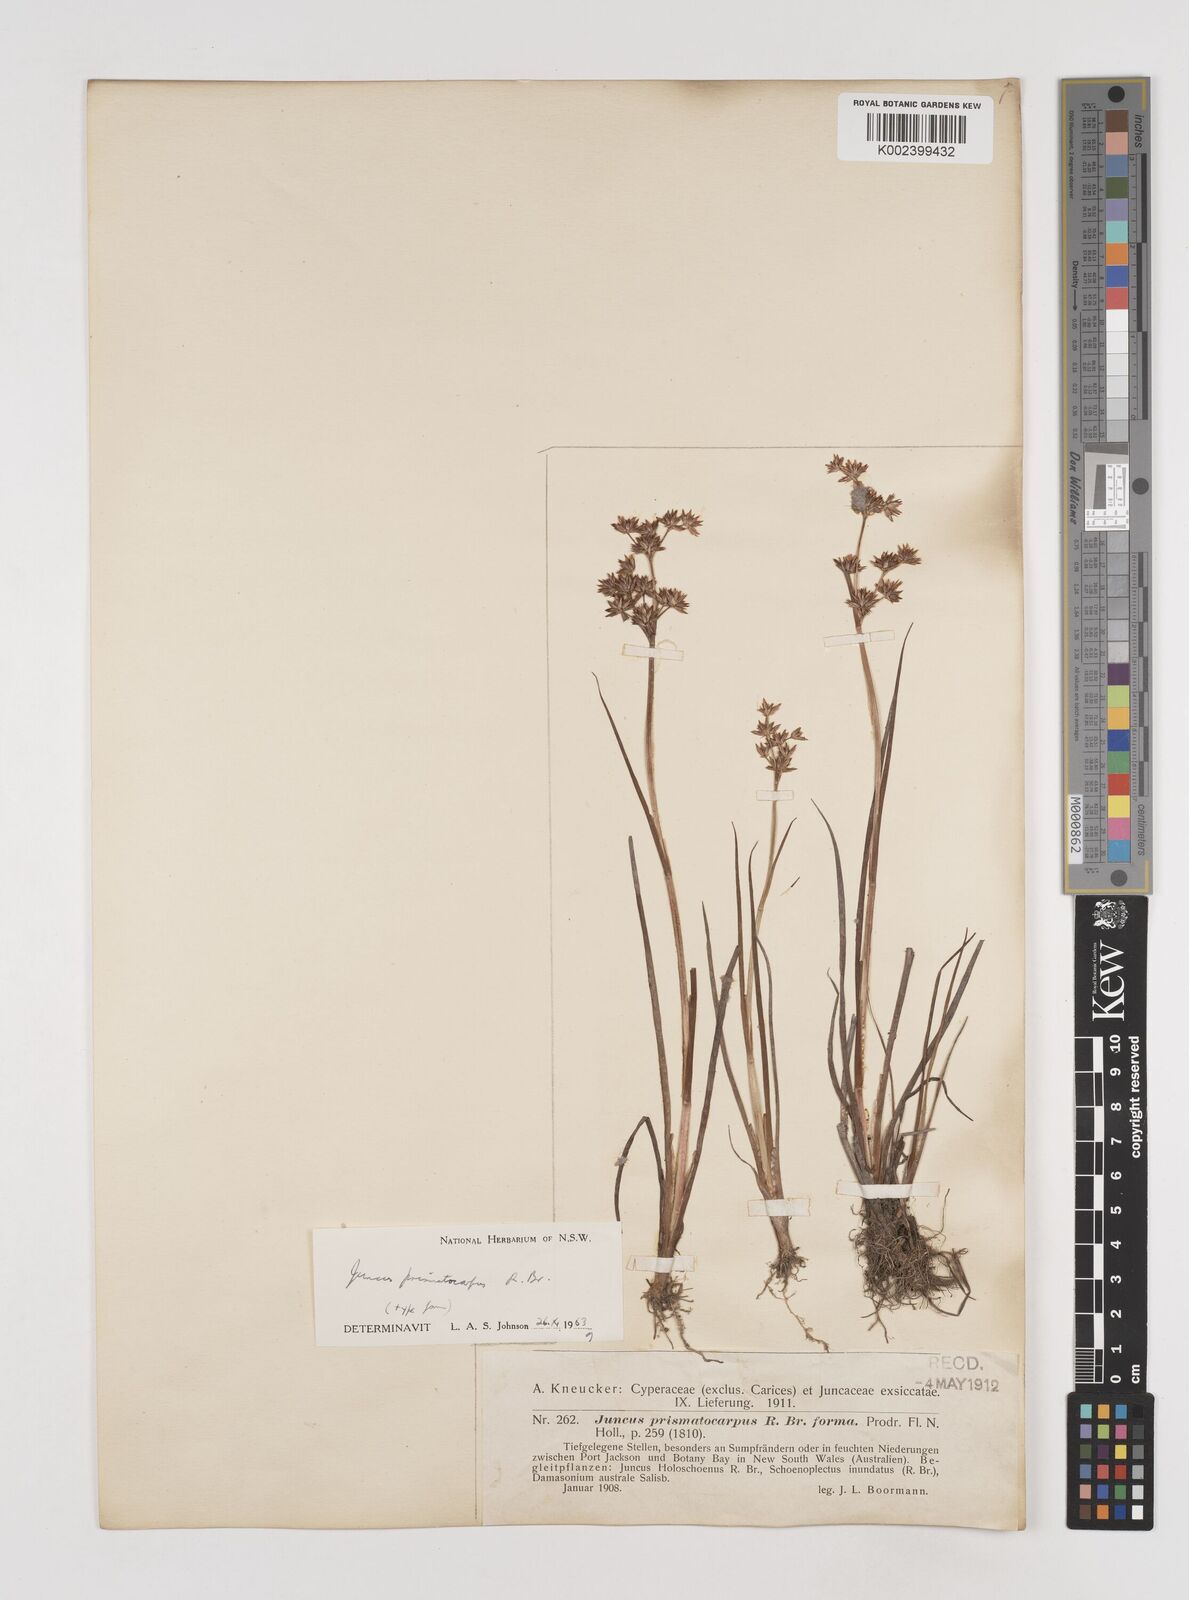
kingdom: Plantae
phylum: Tracheophyta
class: Liliopsida
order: Poales
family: Juncaceae
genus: Juncus
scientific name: Juncus prismatocarpus
